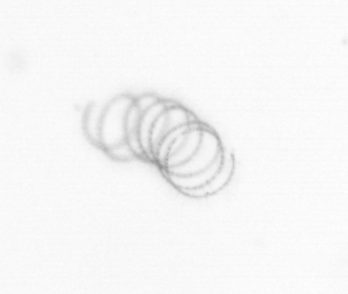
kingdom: Chromista
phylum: Ochrophyta
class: Bacillariophyceae
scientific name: Bacillariophyceae
